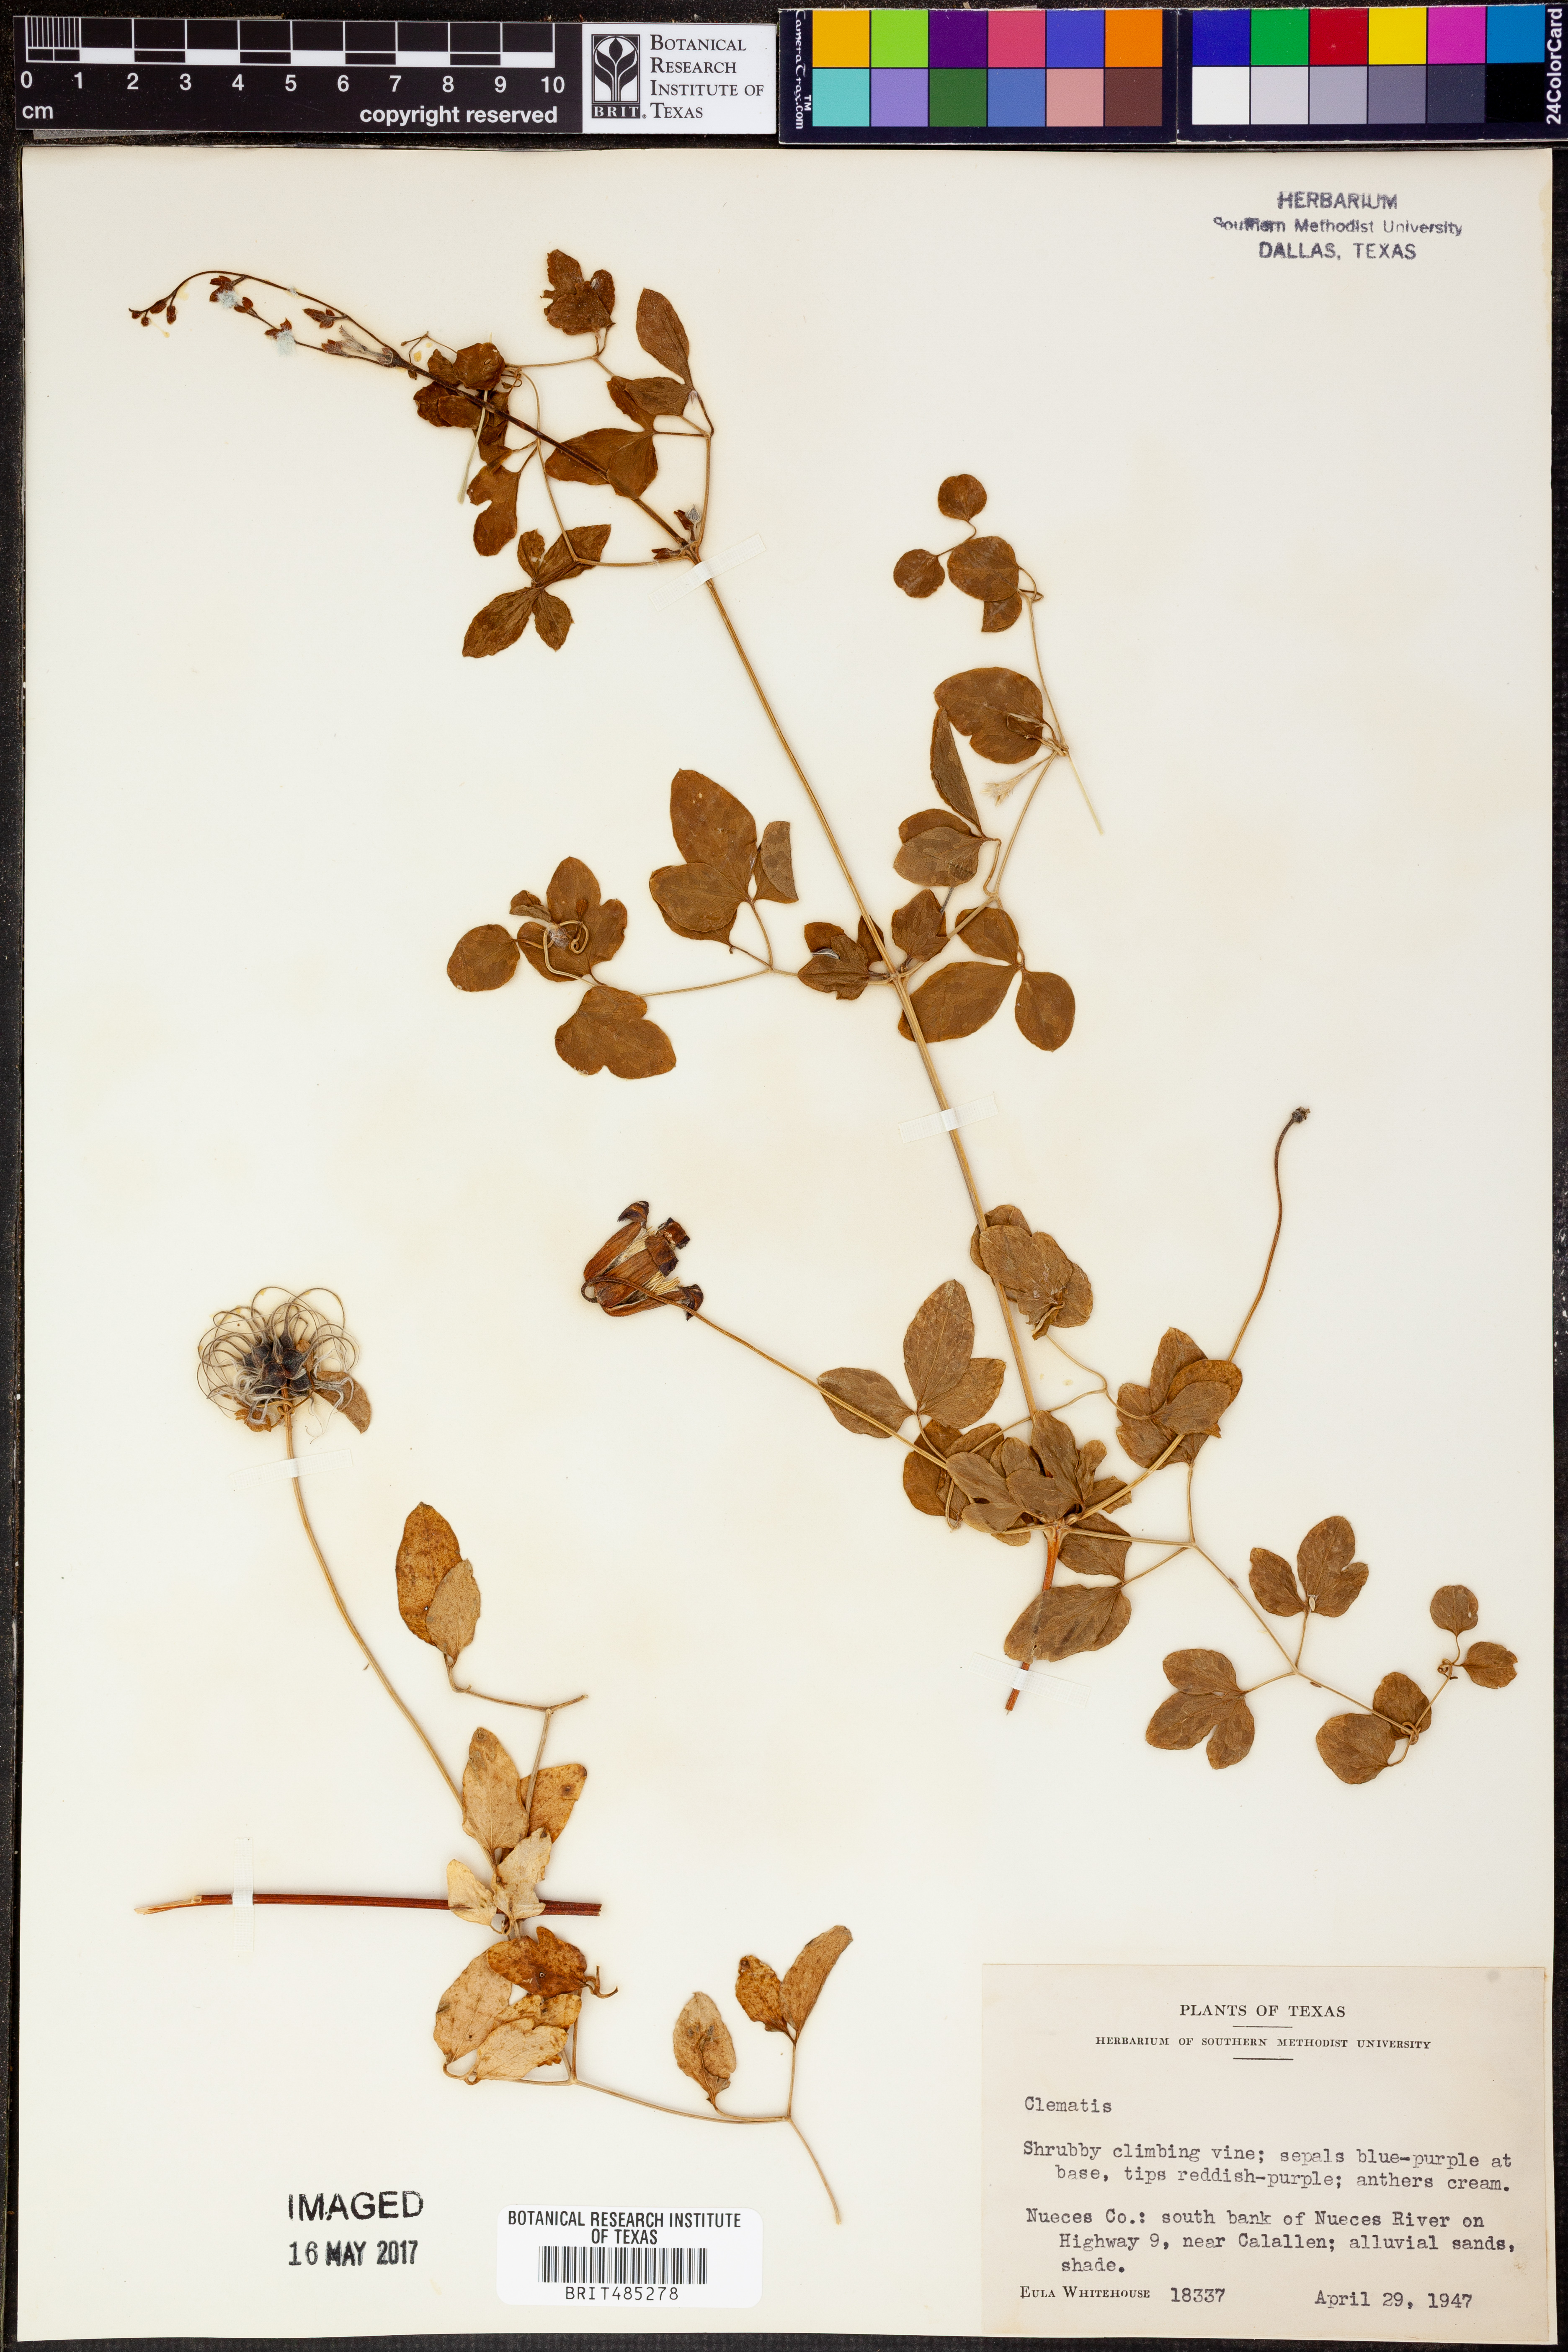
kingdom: Plantae
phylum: Tracheophyta
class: Magnoliopsida
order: Ranunculales
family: Ranunculaceae
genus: Clematis
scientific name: Clematis
